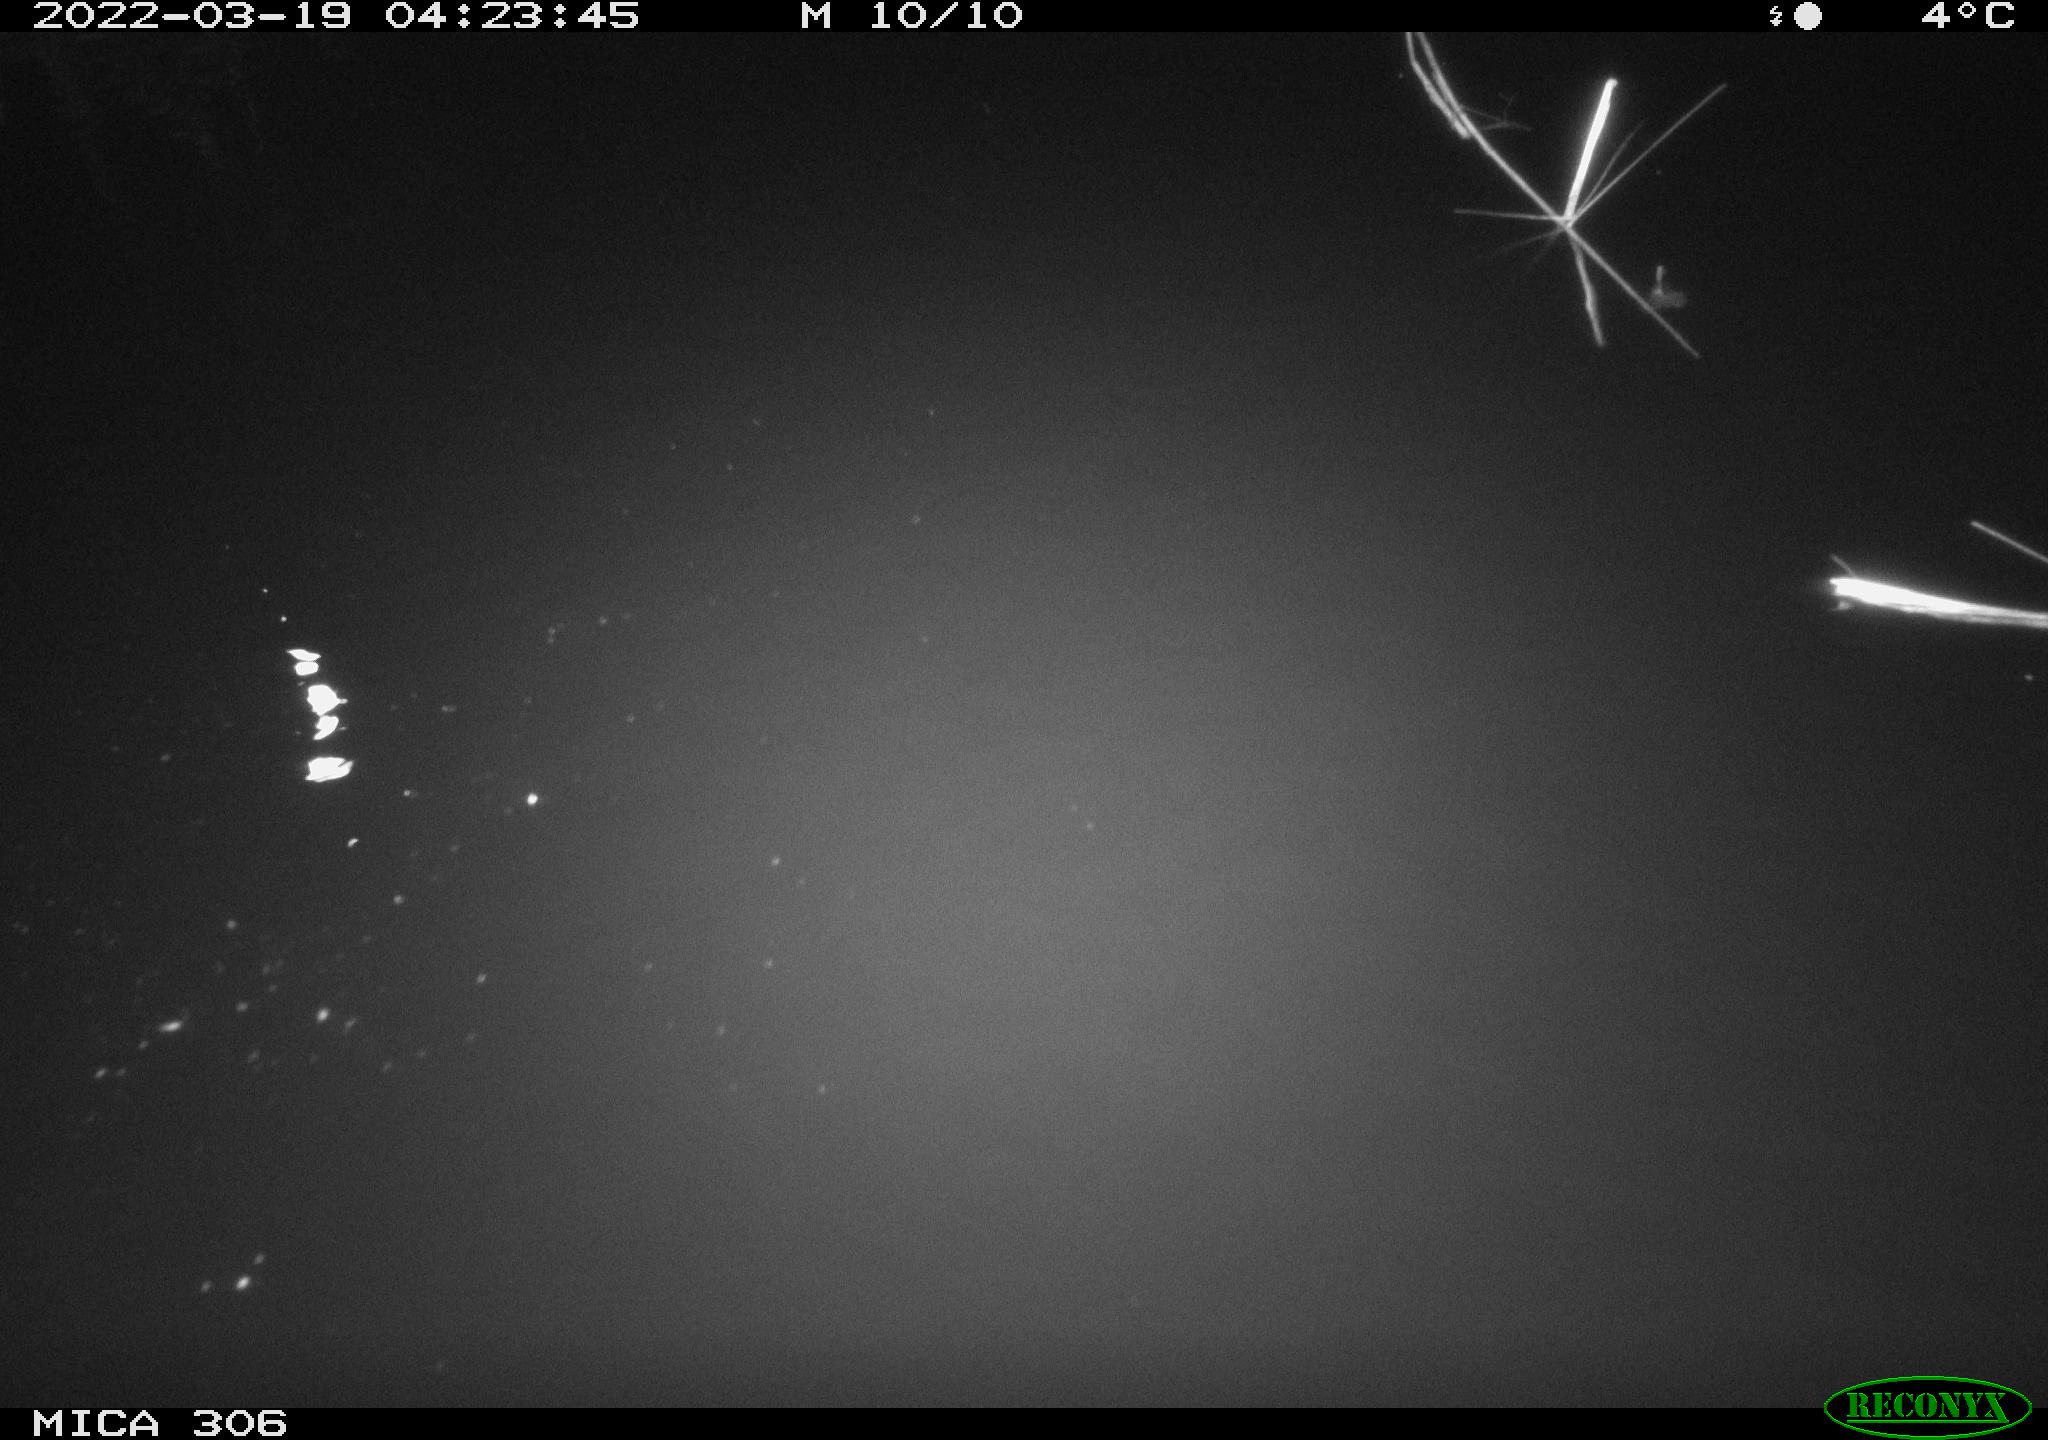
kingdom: Animalia
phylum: Chordata
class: Aves
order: Gruiformes
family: Rallidae
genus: Gallinula
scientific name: Gallinula chloropus
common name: Common moorhen
